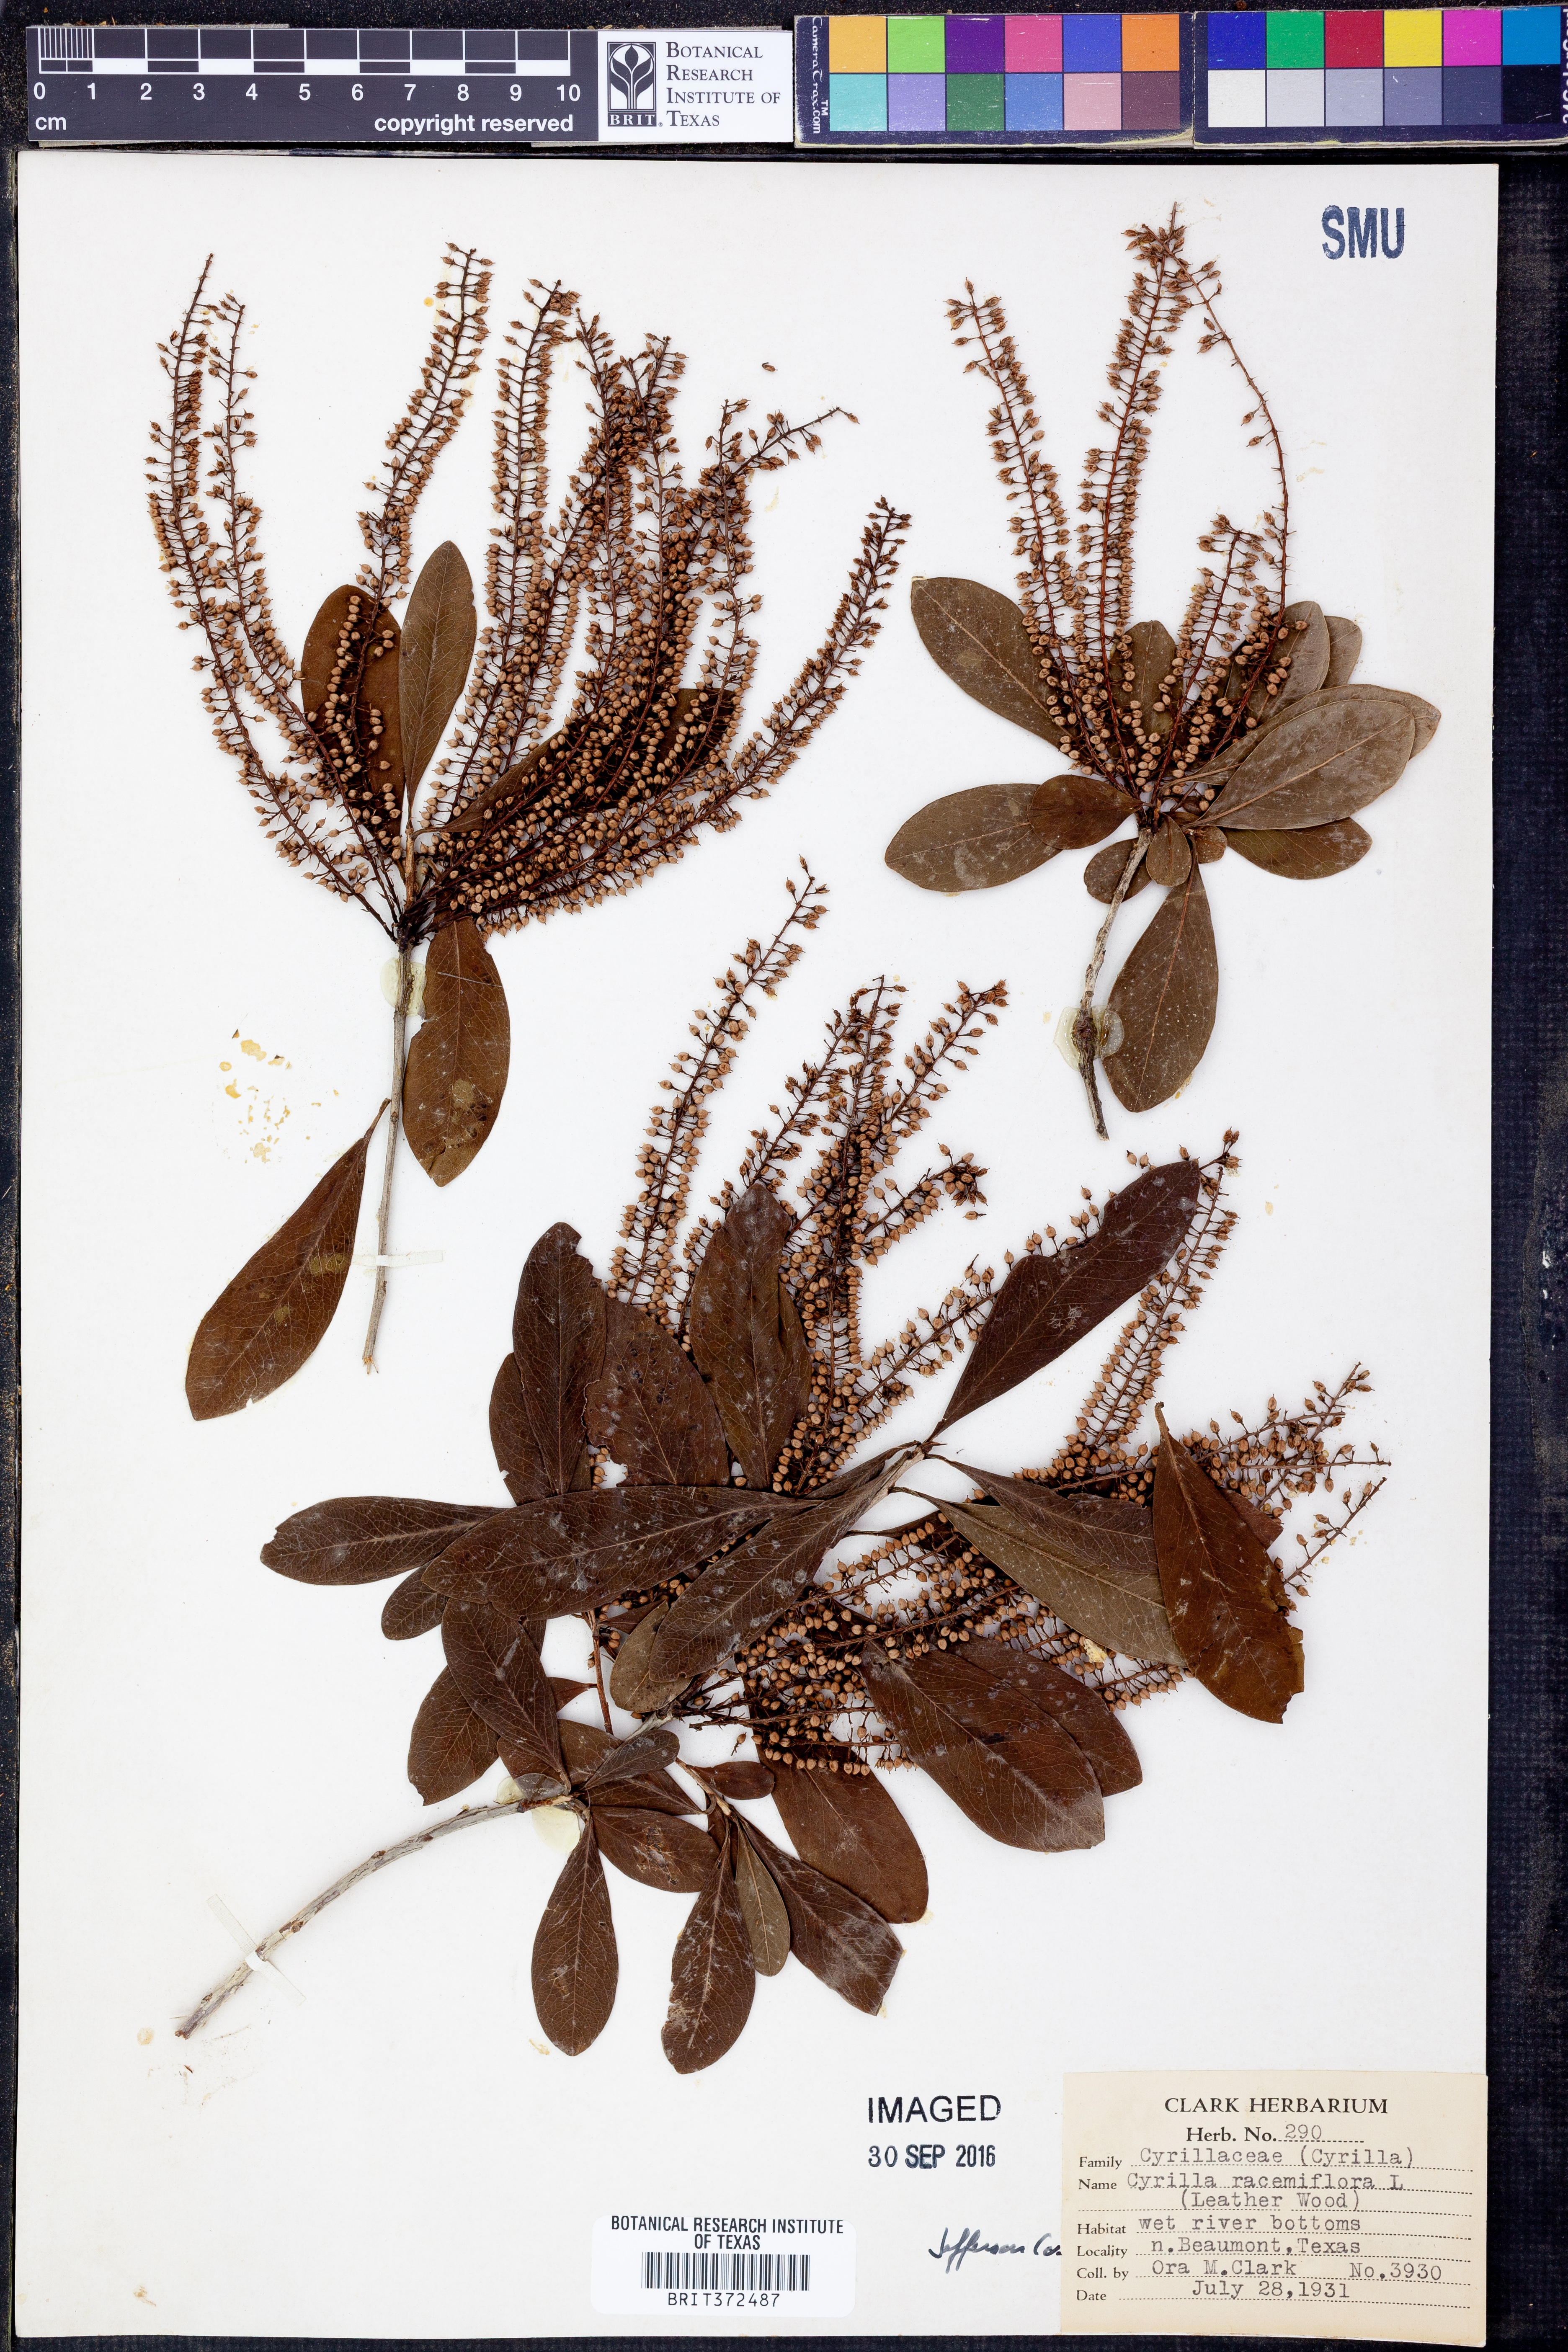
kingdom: Plantae
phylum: Tracheophyta
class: Magnoliopsida
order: Ericales
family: Cyrillaceae
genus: Cyrilla
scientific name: Cyrilla racemiflora
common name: Black titi
